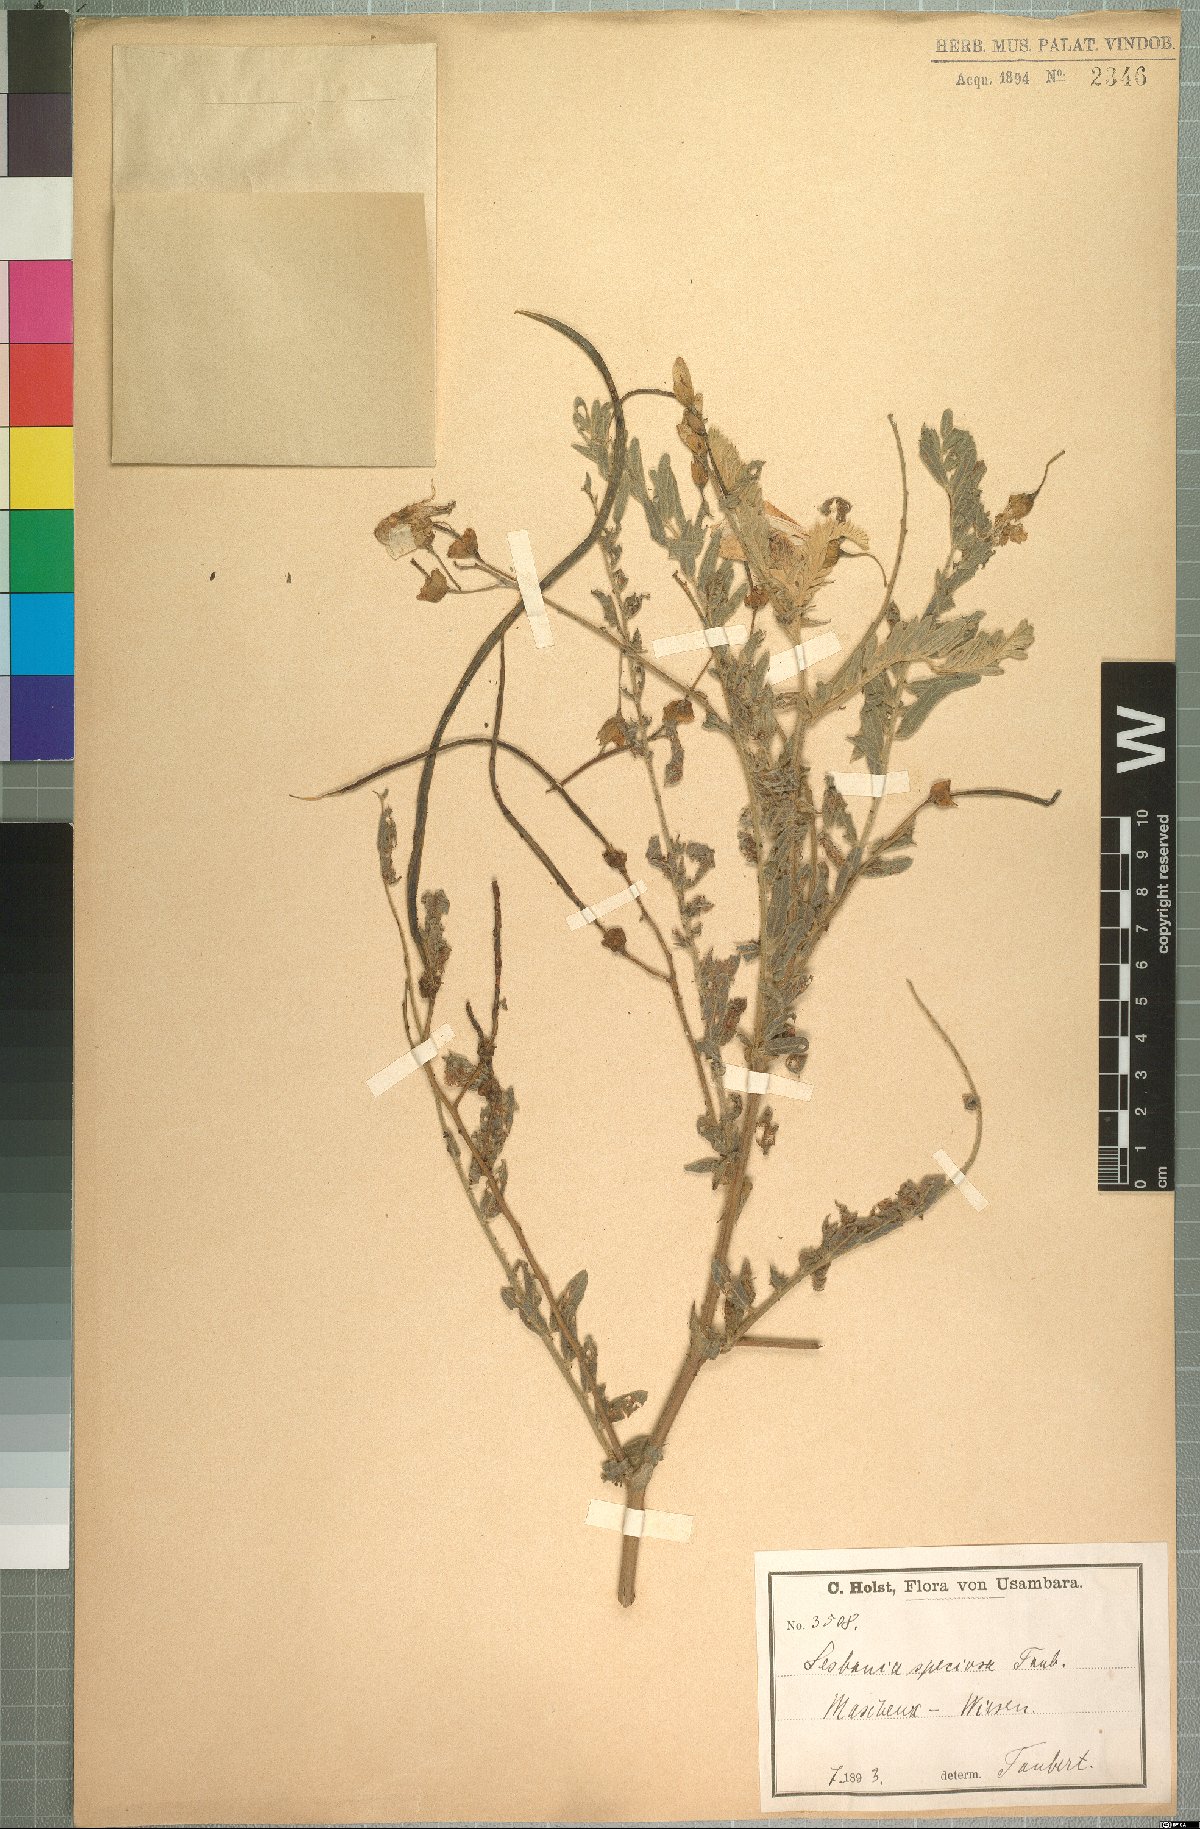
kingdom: Plantae
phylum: Tracheophyta
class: Magnoliopsida
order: Fabales
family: Fabaceae
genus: Sesbania
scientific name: Sesbania speciosa
